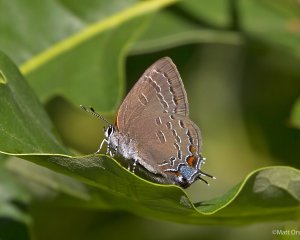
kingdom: Animalia
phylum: Arthropoda
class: Insecta
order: Lepidoptera
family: Lycaenidae
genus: Satyrium
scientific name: Satyrium calanus
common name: Banded Hairstreak
